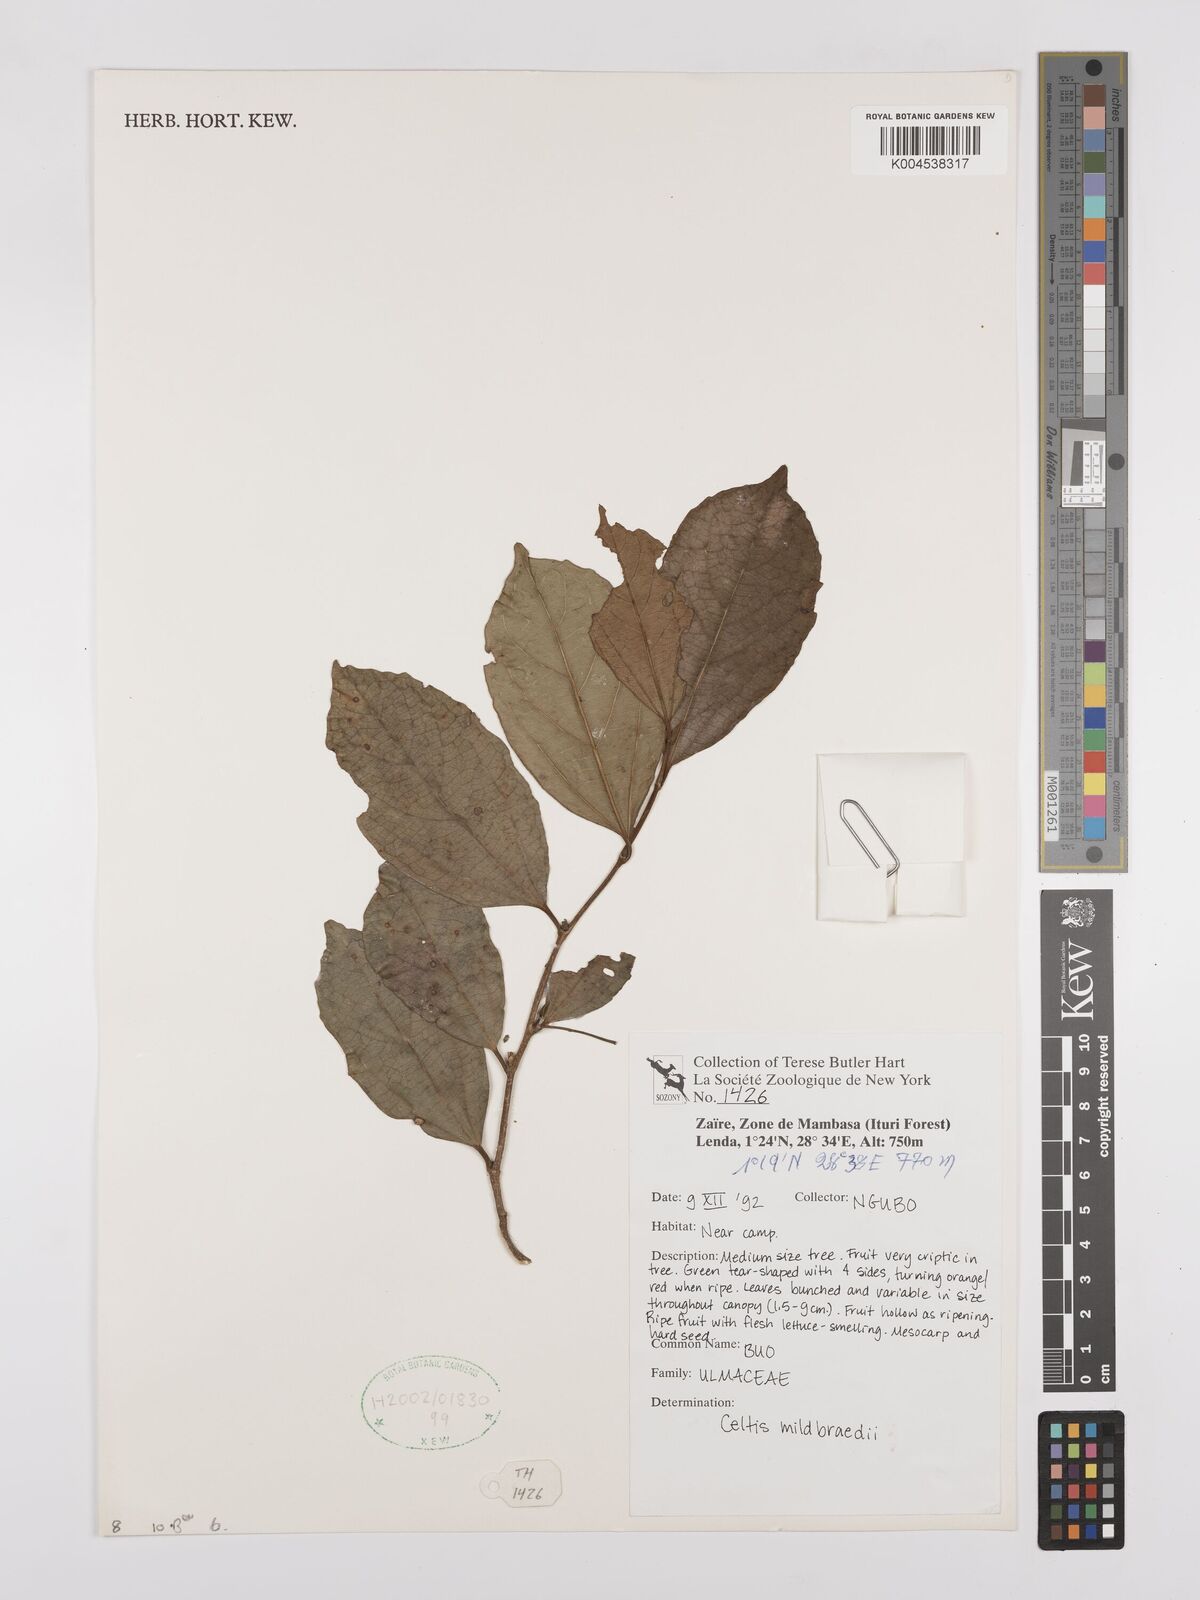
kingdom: Plantae
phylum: Tracheophyta
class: Magnoliopsida
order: Rosales
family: Cannabaceae
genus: Celtis
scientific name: Celtis mildbraedii
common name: Red-fruited stinkwood
